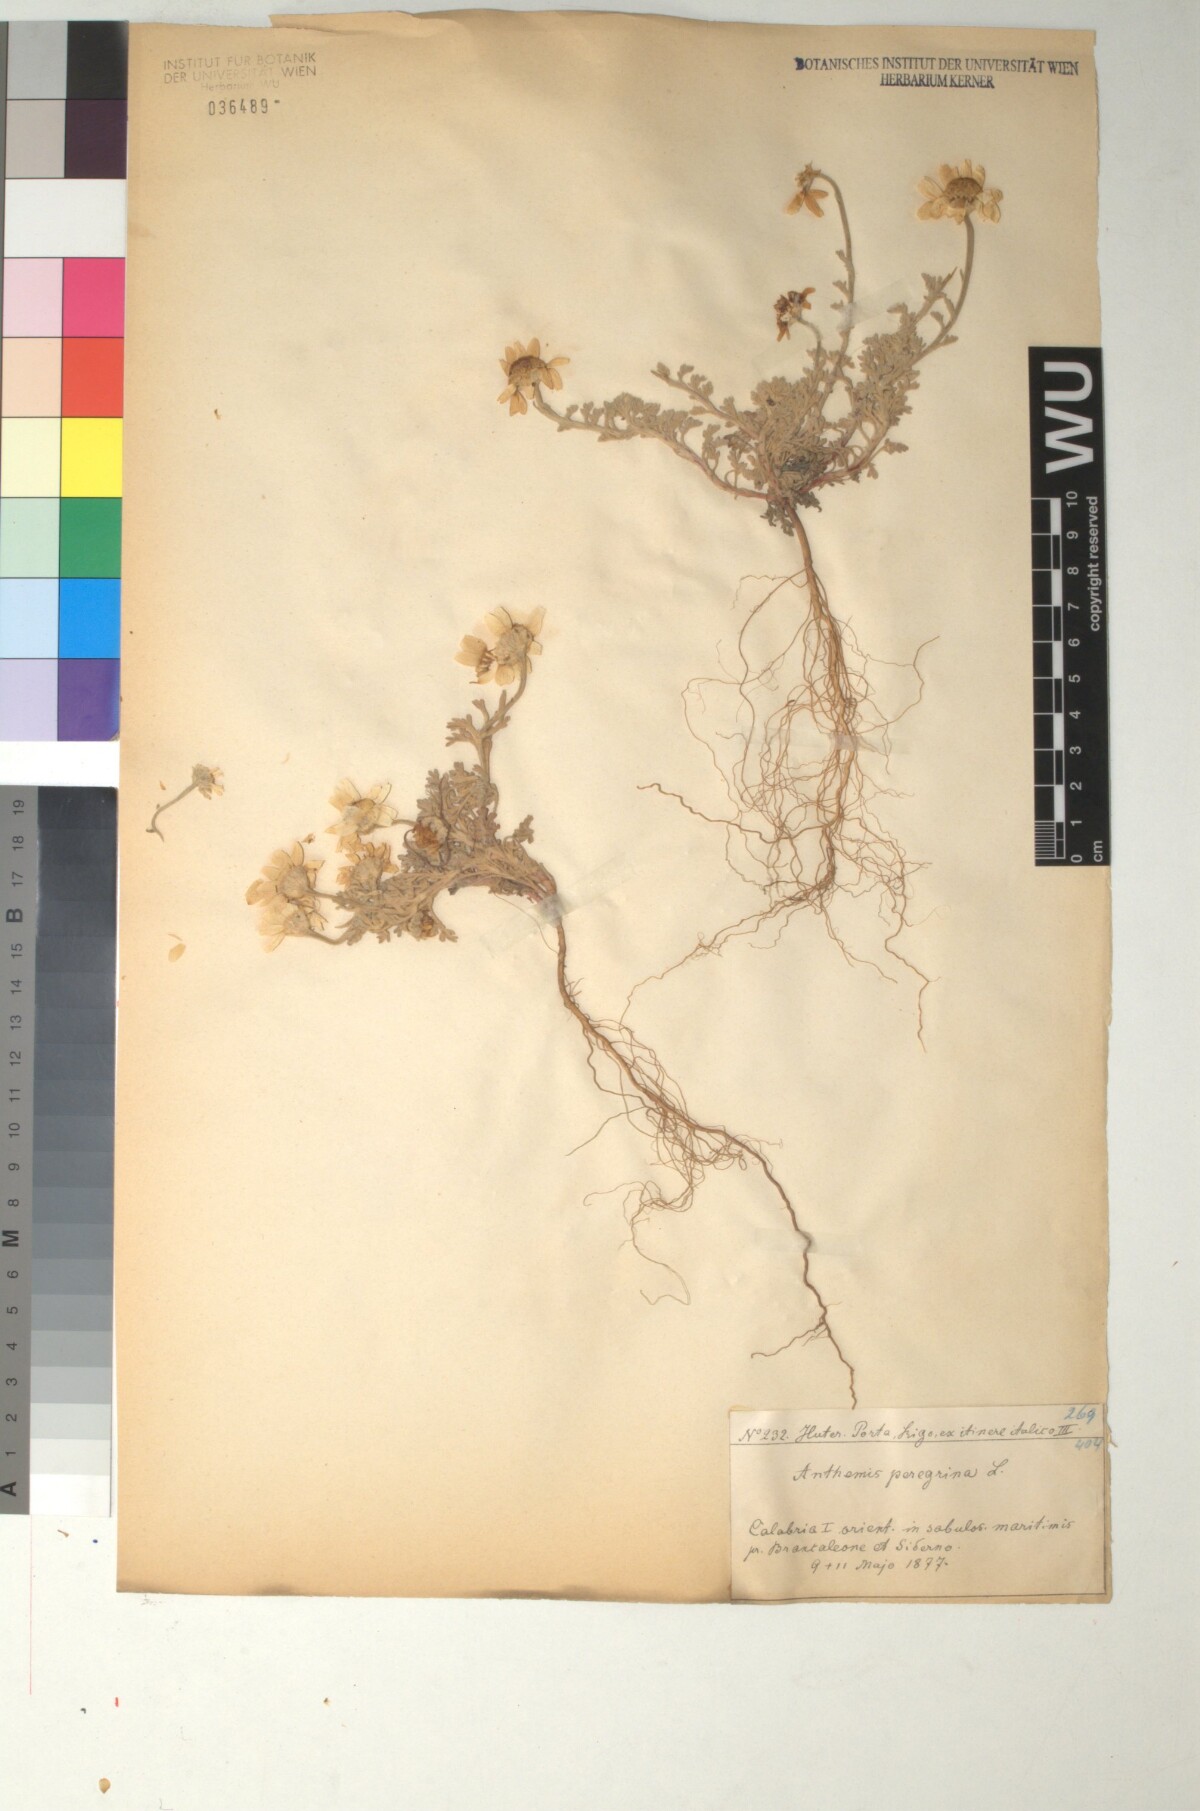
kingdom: Plantae
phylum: Tracheophyta
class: Magnoliopsida
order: Asterales
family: Asteraceae
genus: Anthemis
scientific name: Anthemis tomentosa
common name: Woolly chamomile
